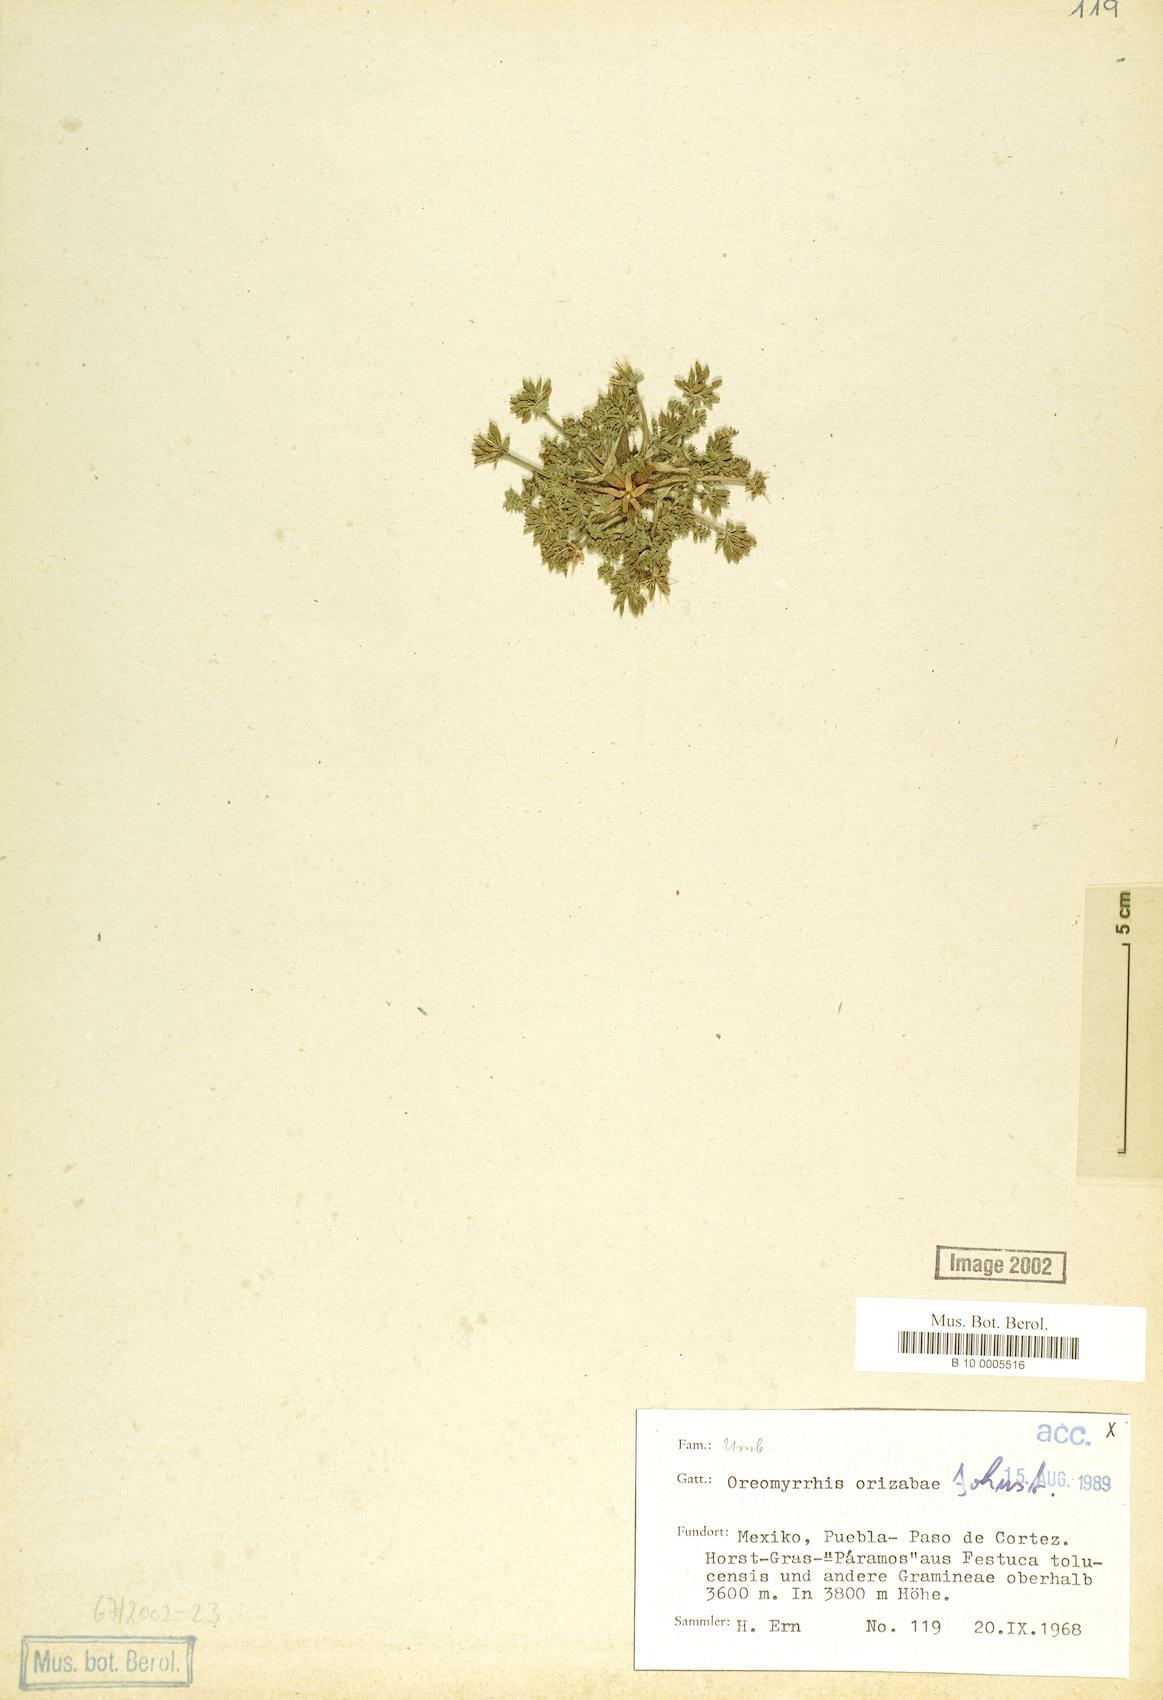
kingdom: Plantae
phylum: Tracheophyta
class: Magnoliopsida
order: Apiales
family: Apiaceae
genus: Chaerophyllum
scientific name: Chaerophyllum orizabae
